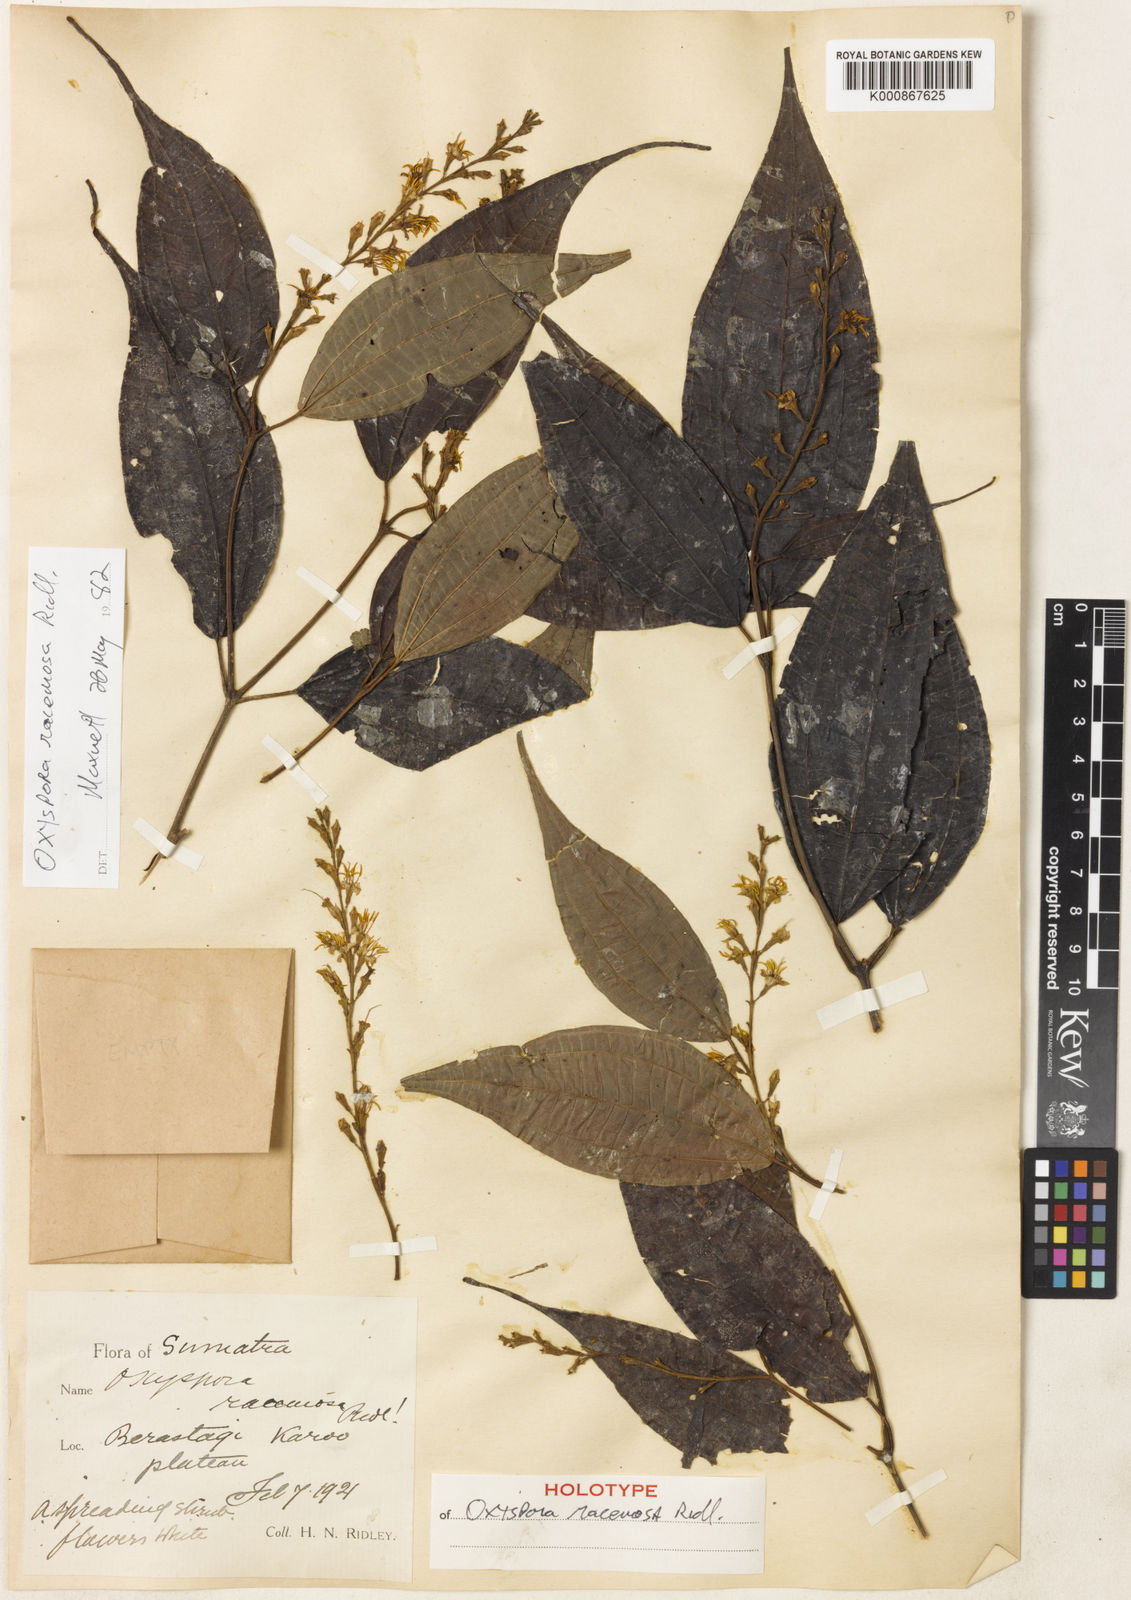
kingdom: Plantae
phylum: Tracheophyta
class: Magnoliopsida
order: Myrtales
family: Melastomataceae
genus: Allomorphia
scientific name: Allomorphia racemosa
